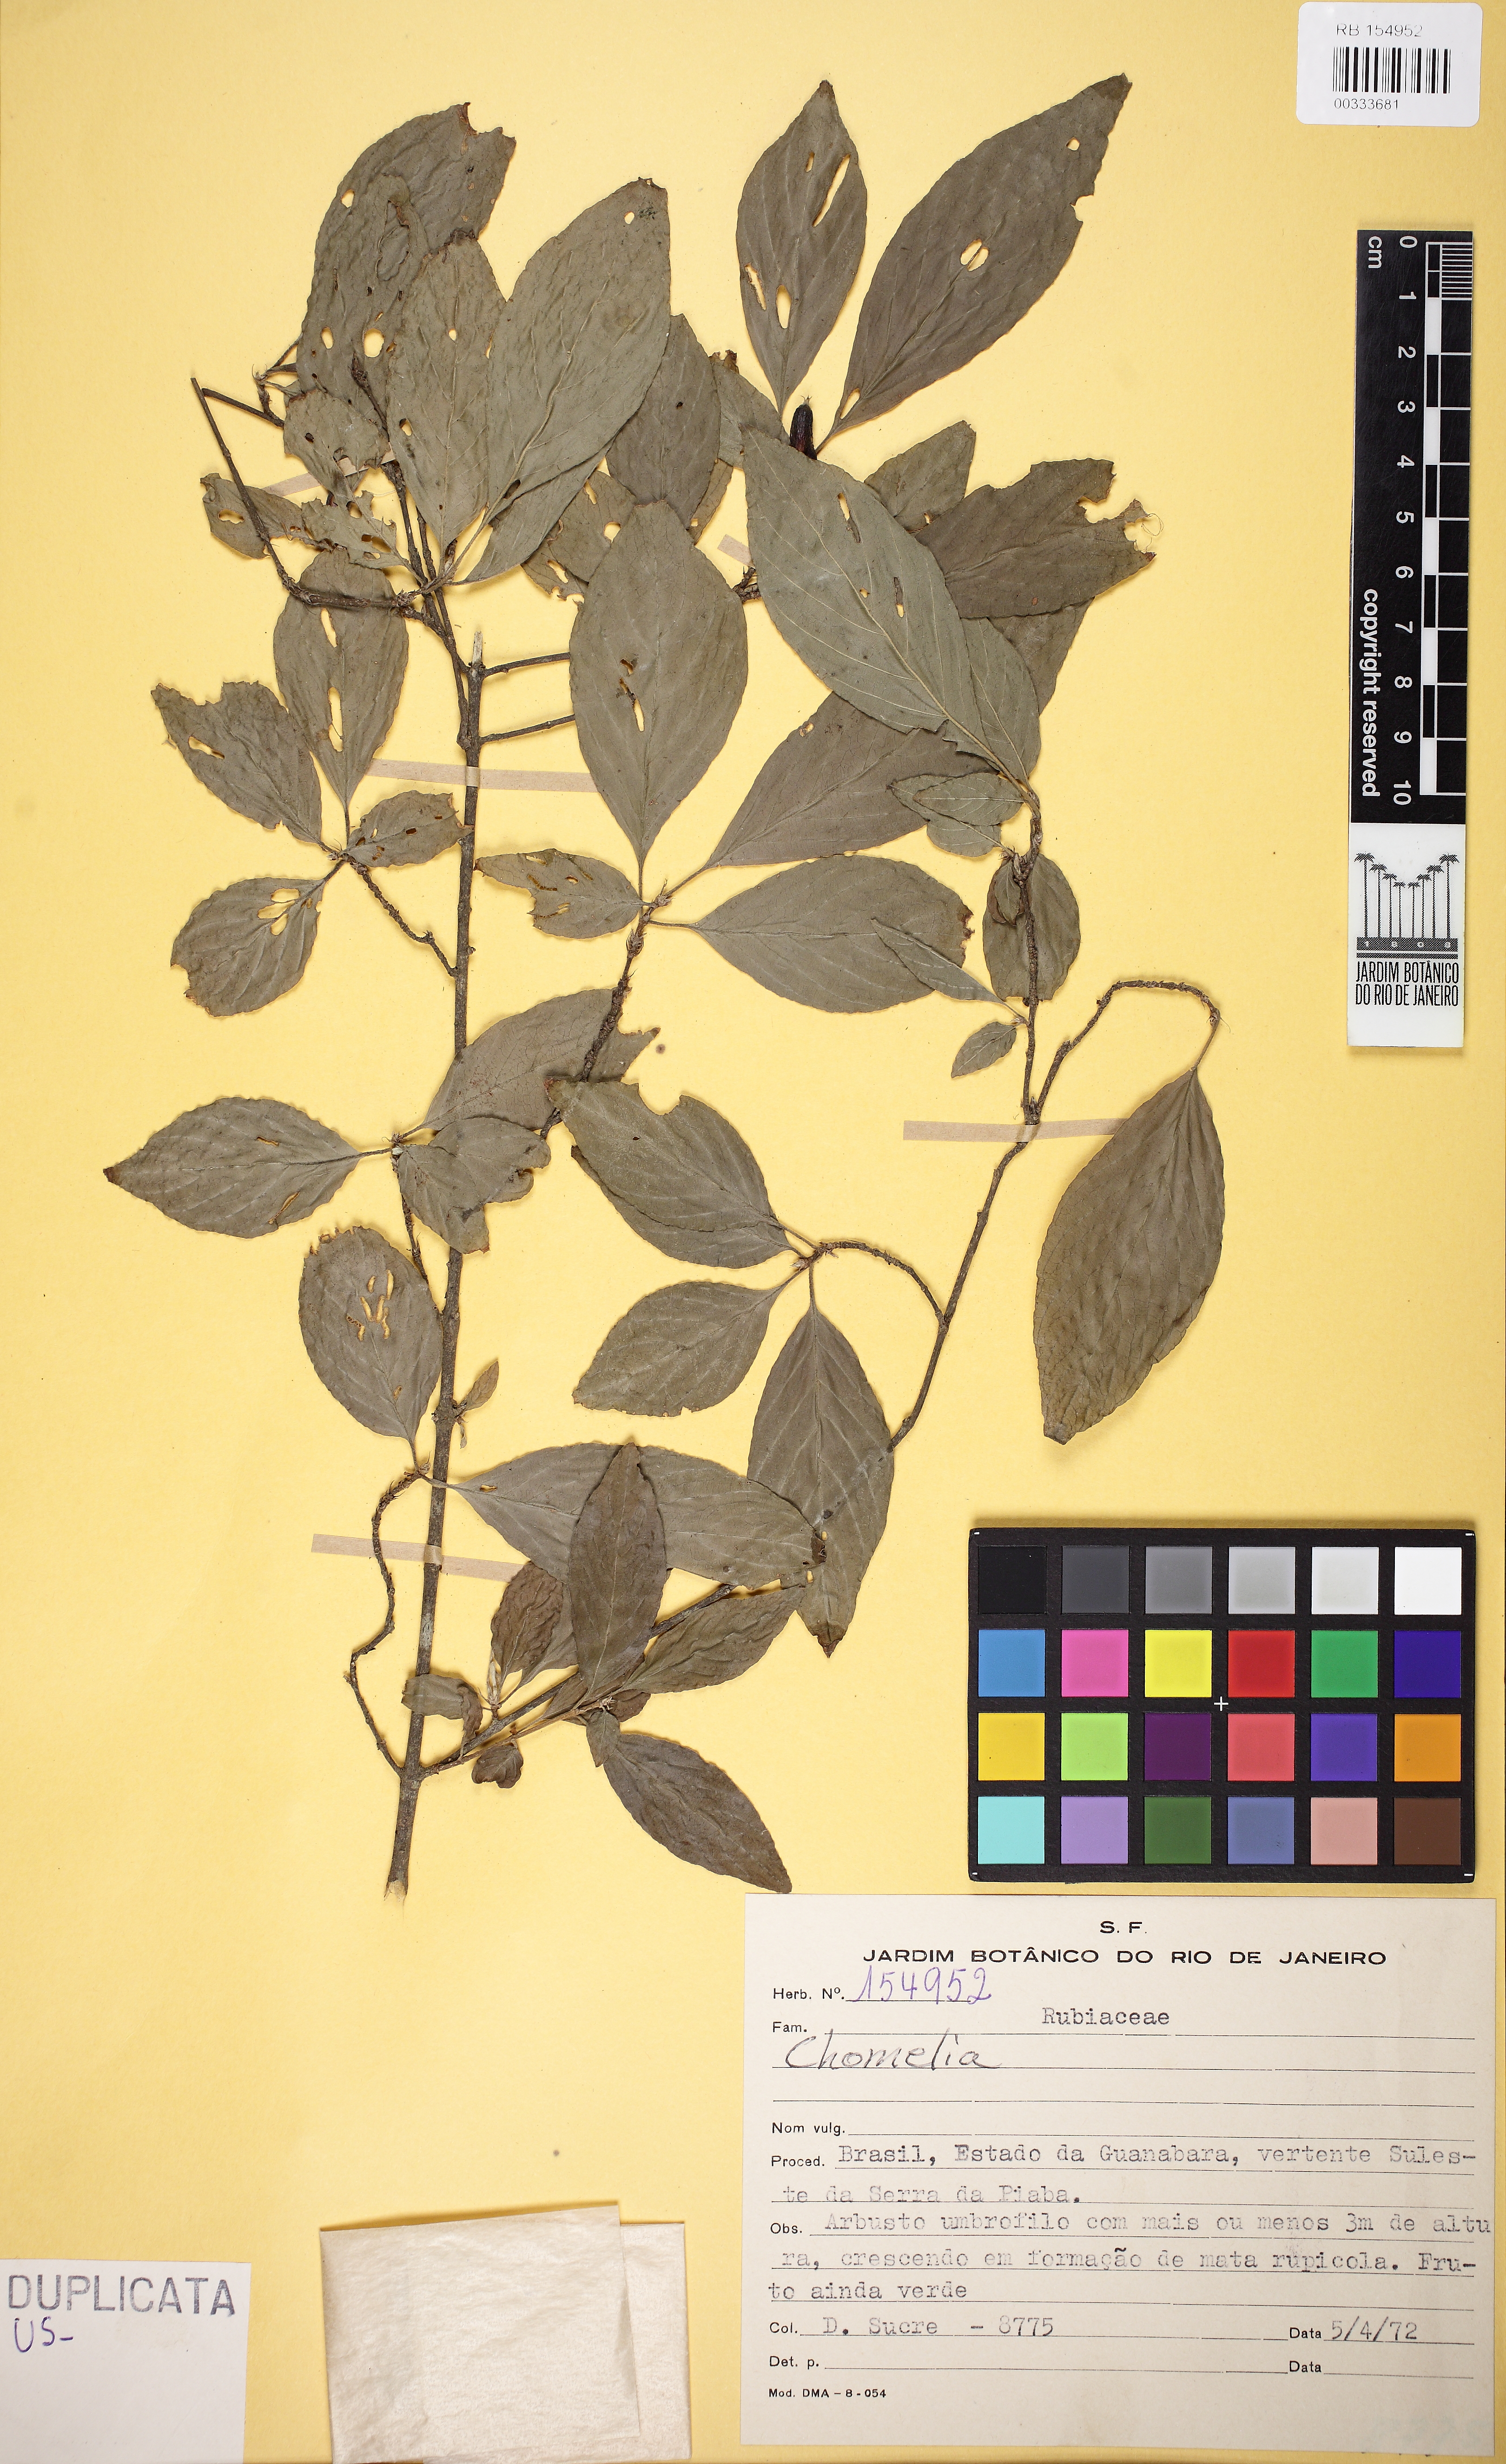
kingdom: Plantae
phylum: Tracheophyta
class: Magnoliopsida
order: Gentianales
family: Rubiaceae
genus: Chomelia
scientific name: Chomelia
